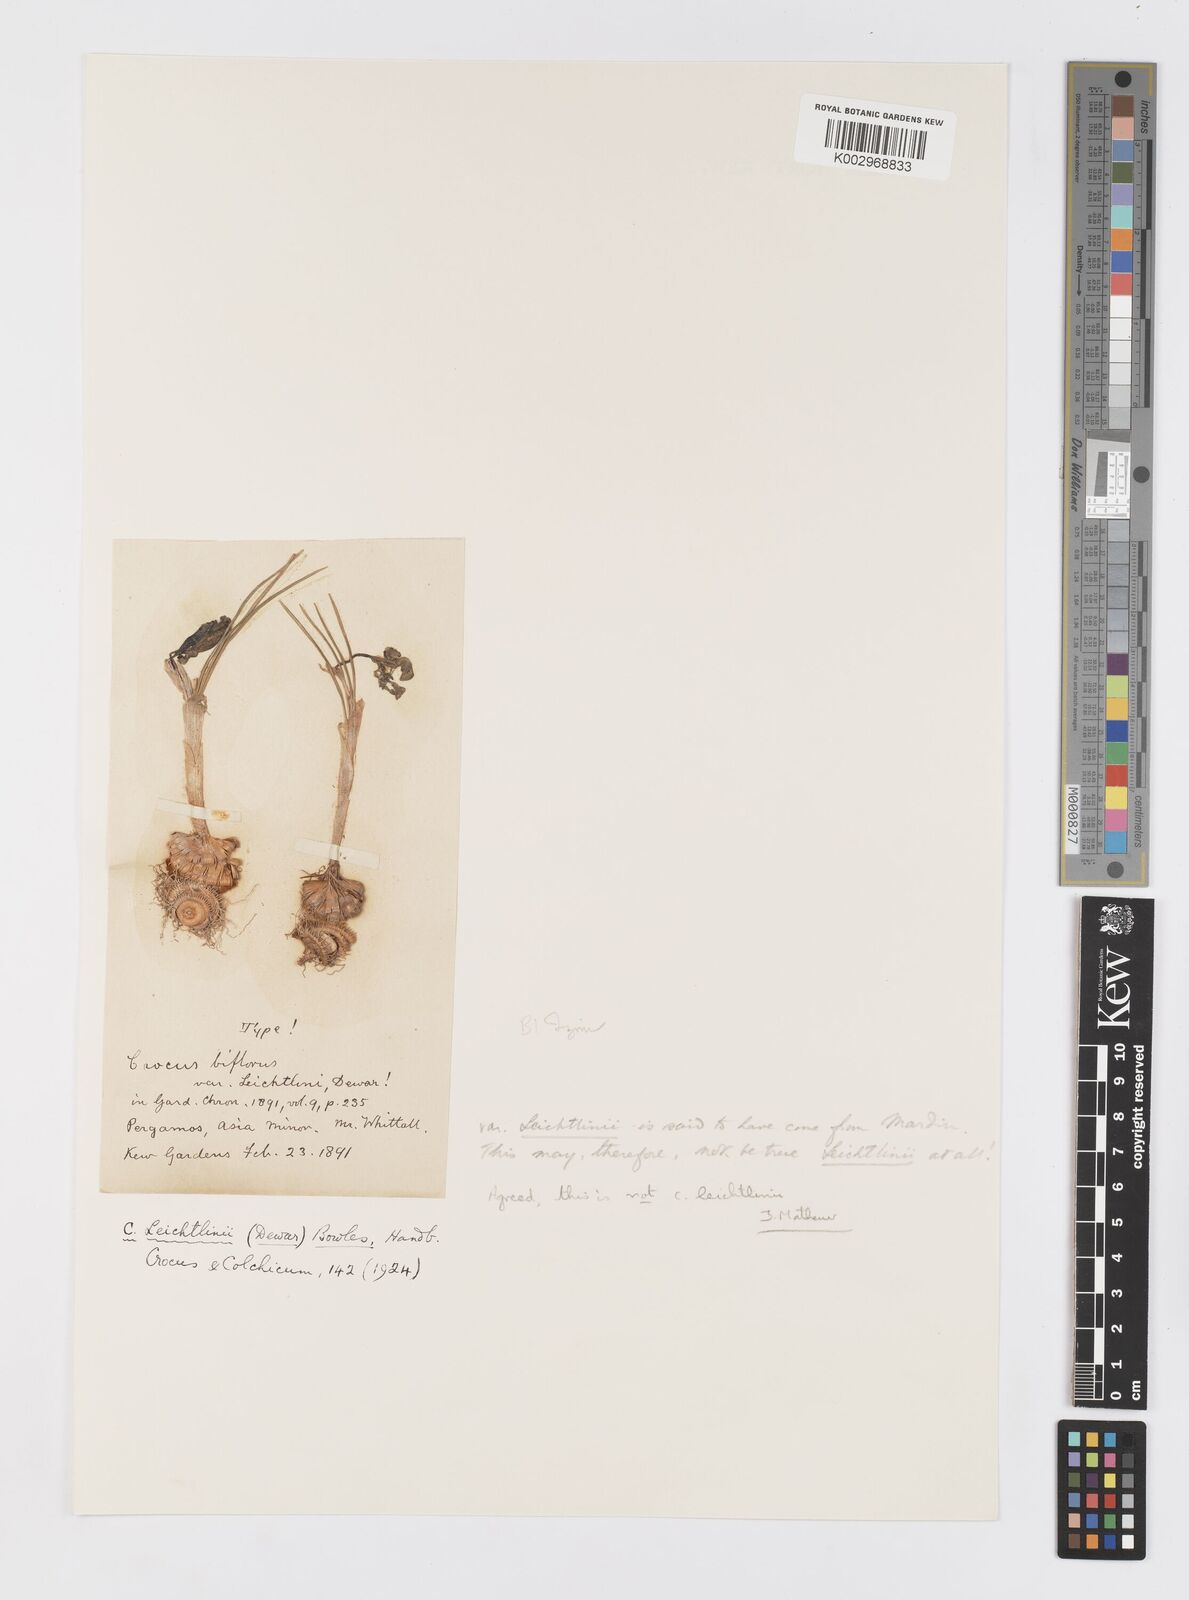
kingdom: Plantae
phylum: Tracheophyta
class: Liliopsida
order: Asparagales
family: Iridaceae
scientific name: Iridaceae
